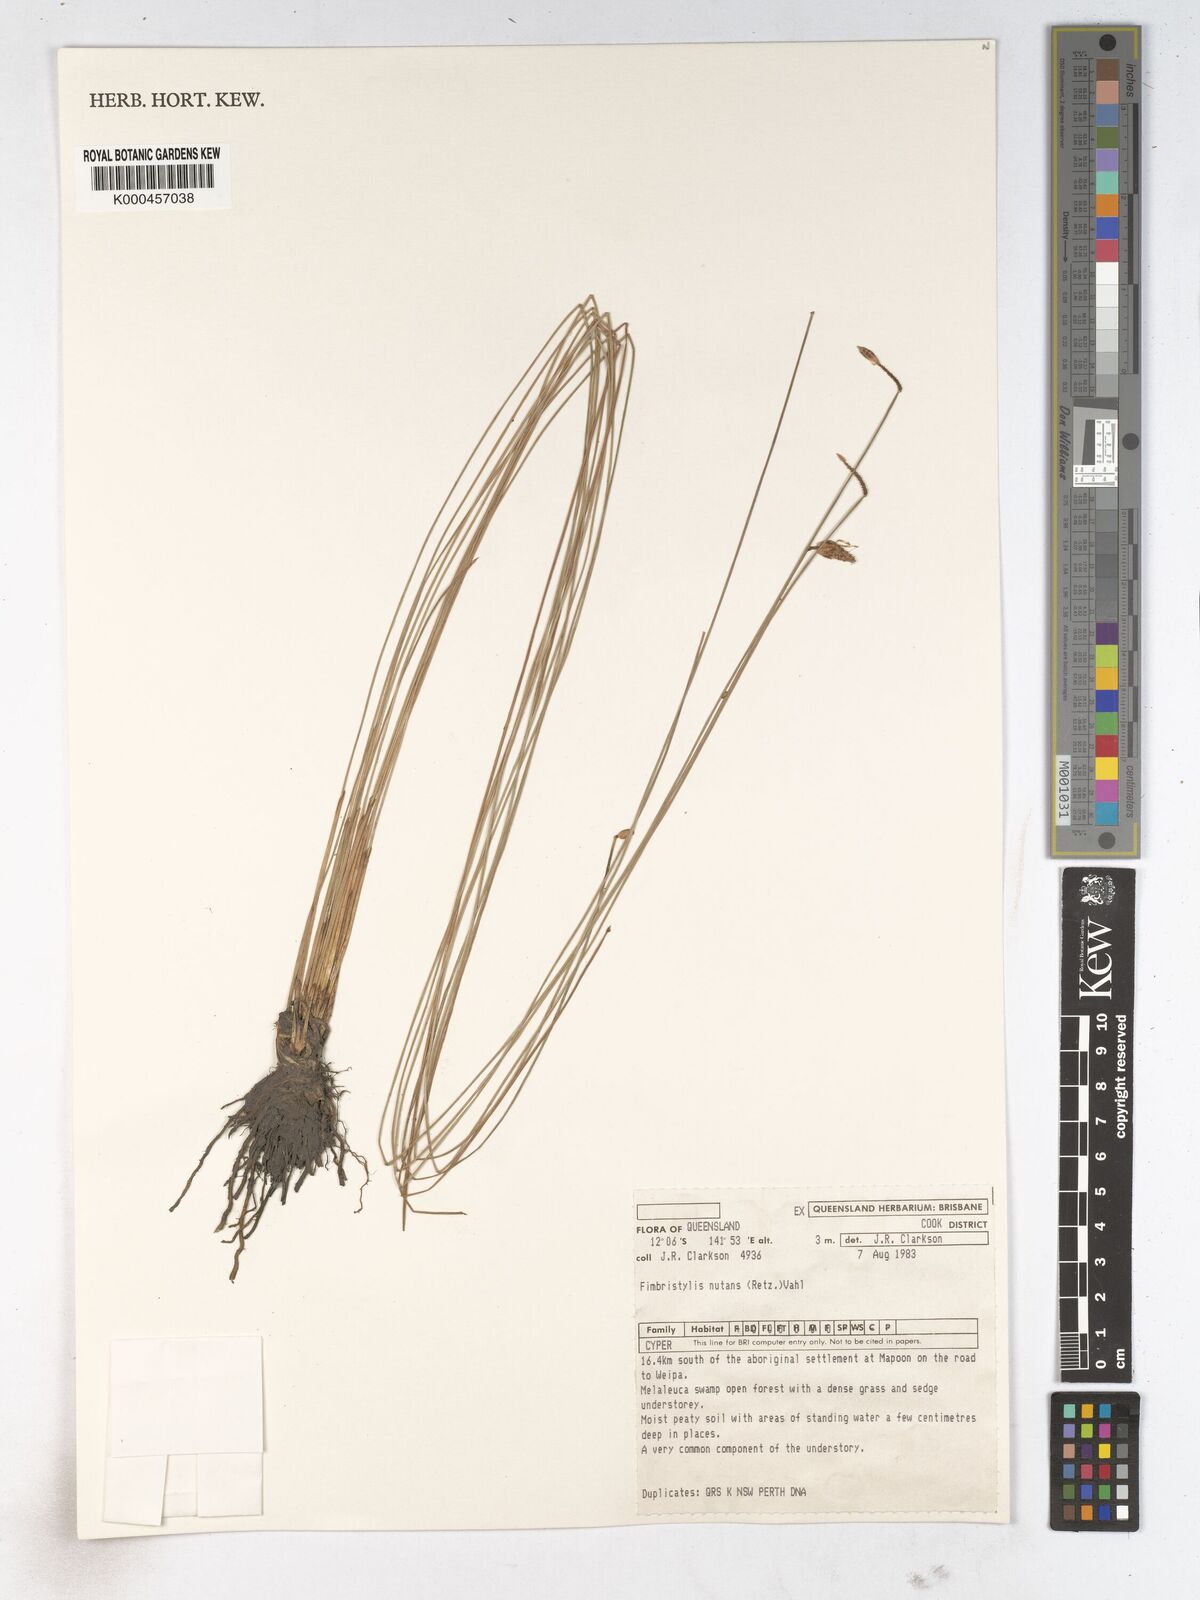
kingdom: Plantae
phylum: Tracheophyta
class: Liliopsida
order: Poales
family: Cyperaceae
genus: Fimbristylis
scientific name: Fimbristylis nutans
